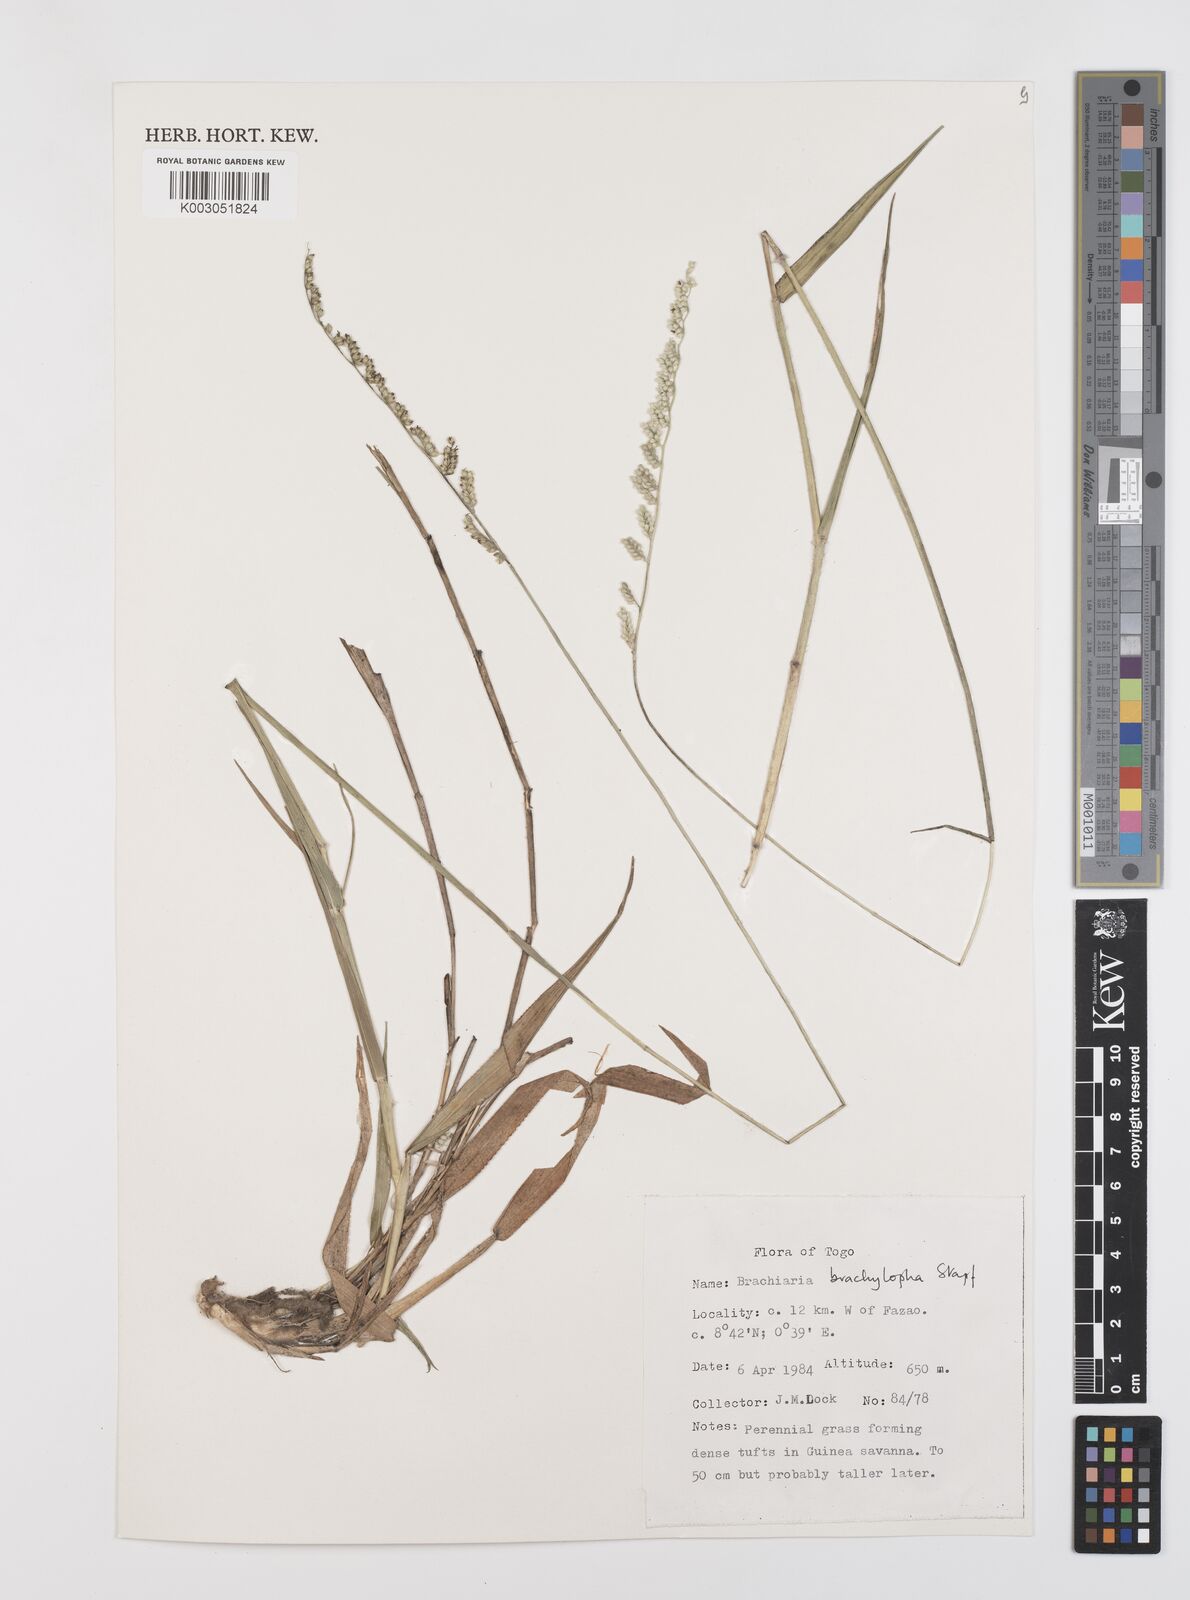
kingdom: Plantae
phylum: Tracheophyta
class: Liliopsida
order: Poales
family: Poaceae
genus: Urochloa
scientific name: Urochloa serrata
